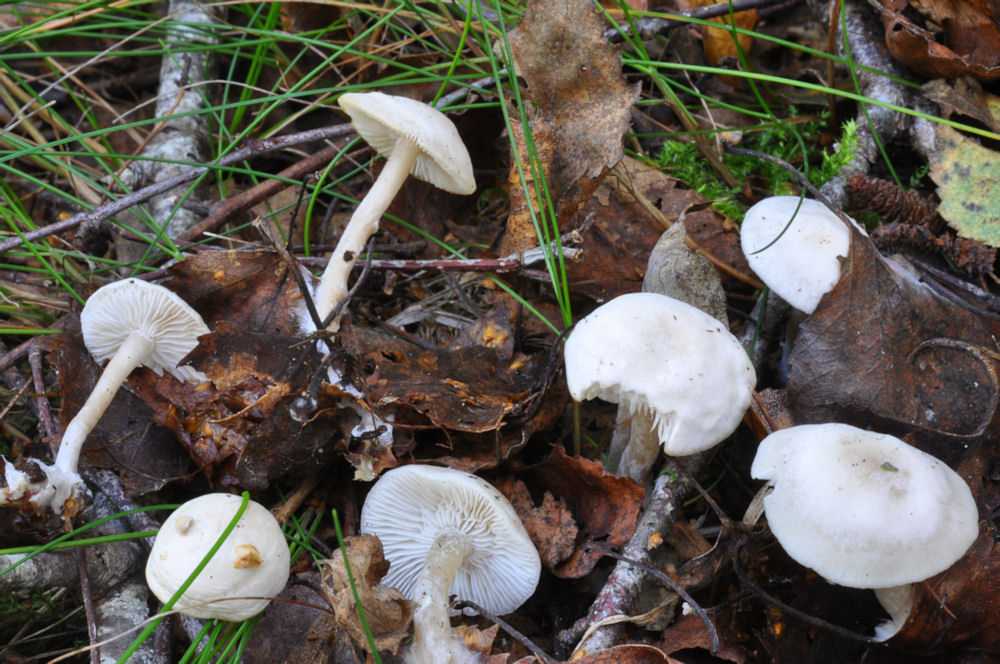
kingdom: Fungi
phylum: Basidiomycota
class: Agaricomycetes
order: Agaricales
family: Tricholomataceae
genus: Leucocybe
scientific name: Leucocybe candicans
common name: kridt-tragthat
